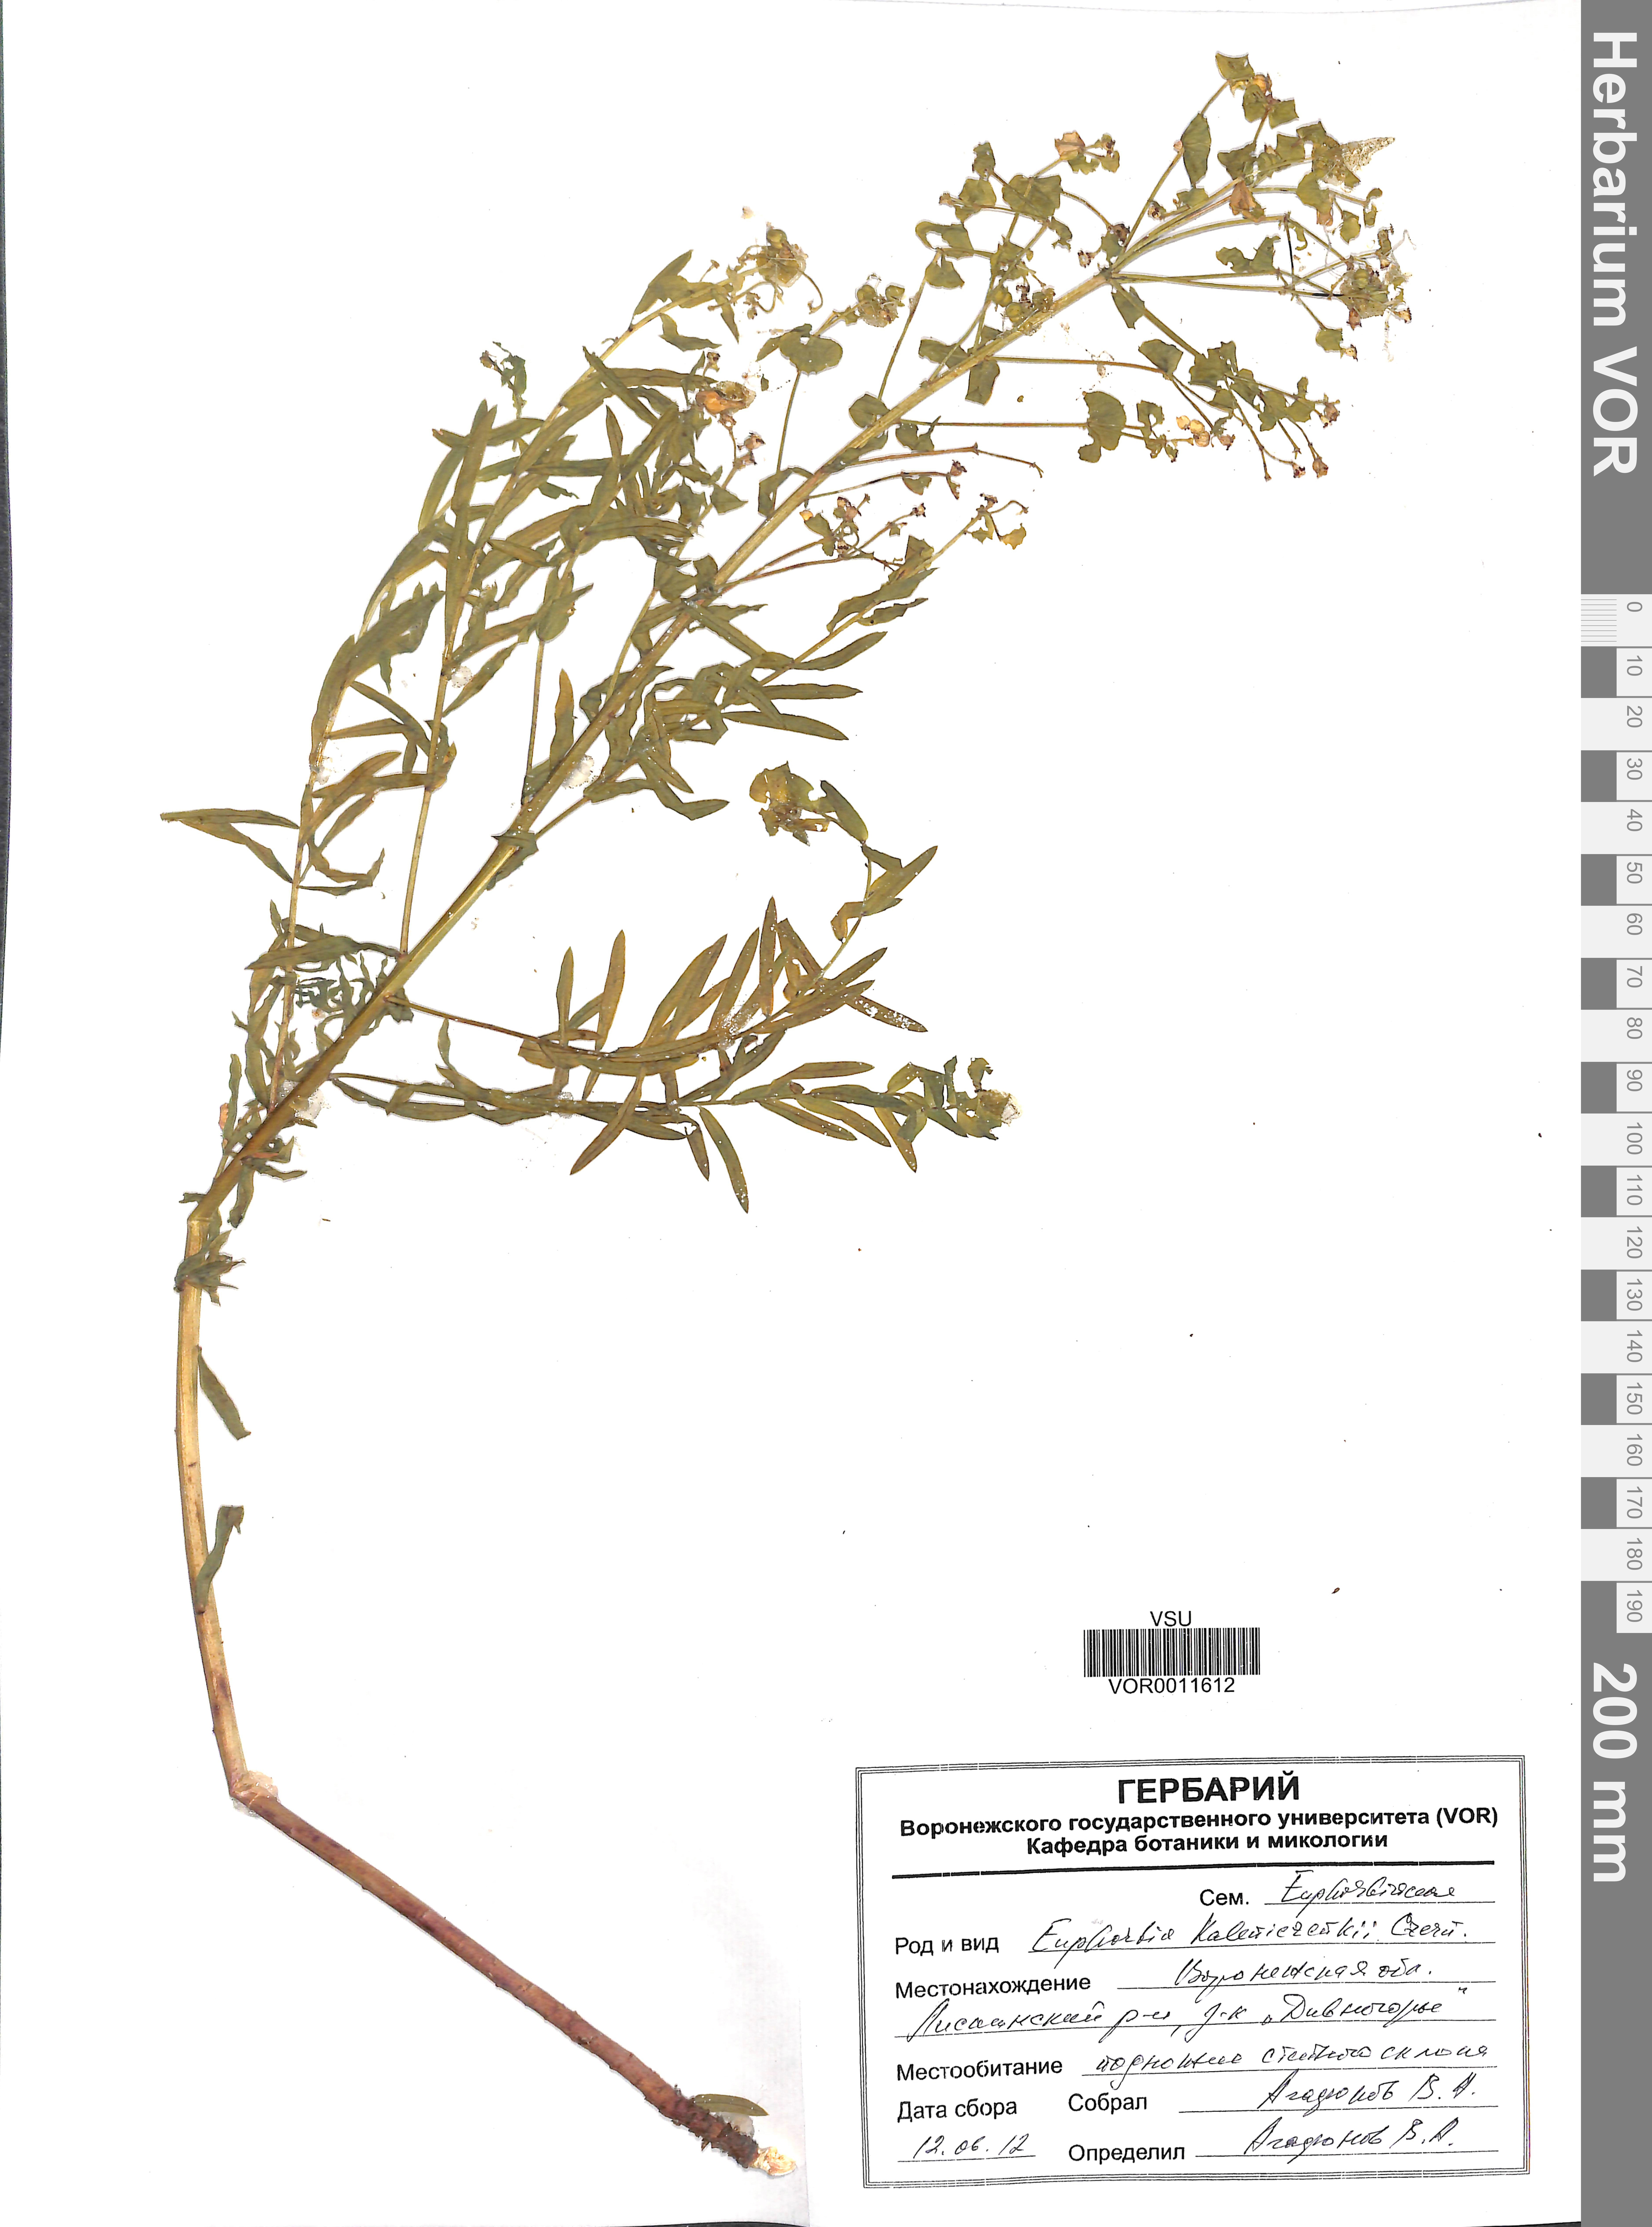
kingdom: Plantae
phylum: Tracheophyta
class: Magnoliopsida
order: Malpighiales
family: Euphorbiaceae
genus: Euphorbia
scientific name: Euphorbia esula
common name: Leafy spurge
